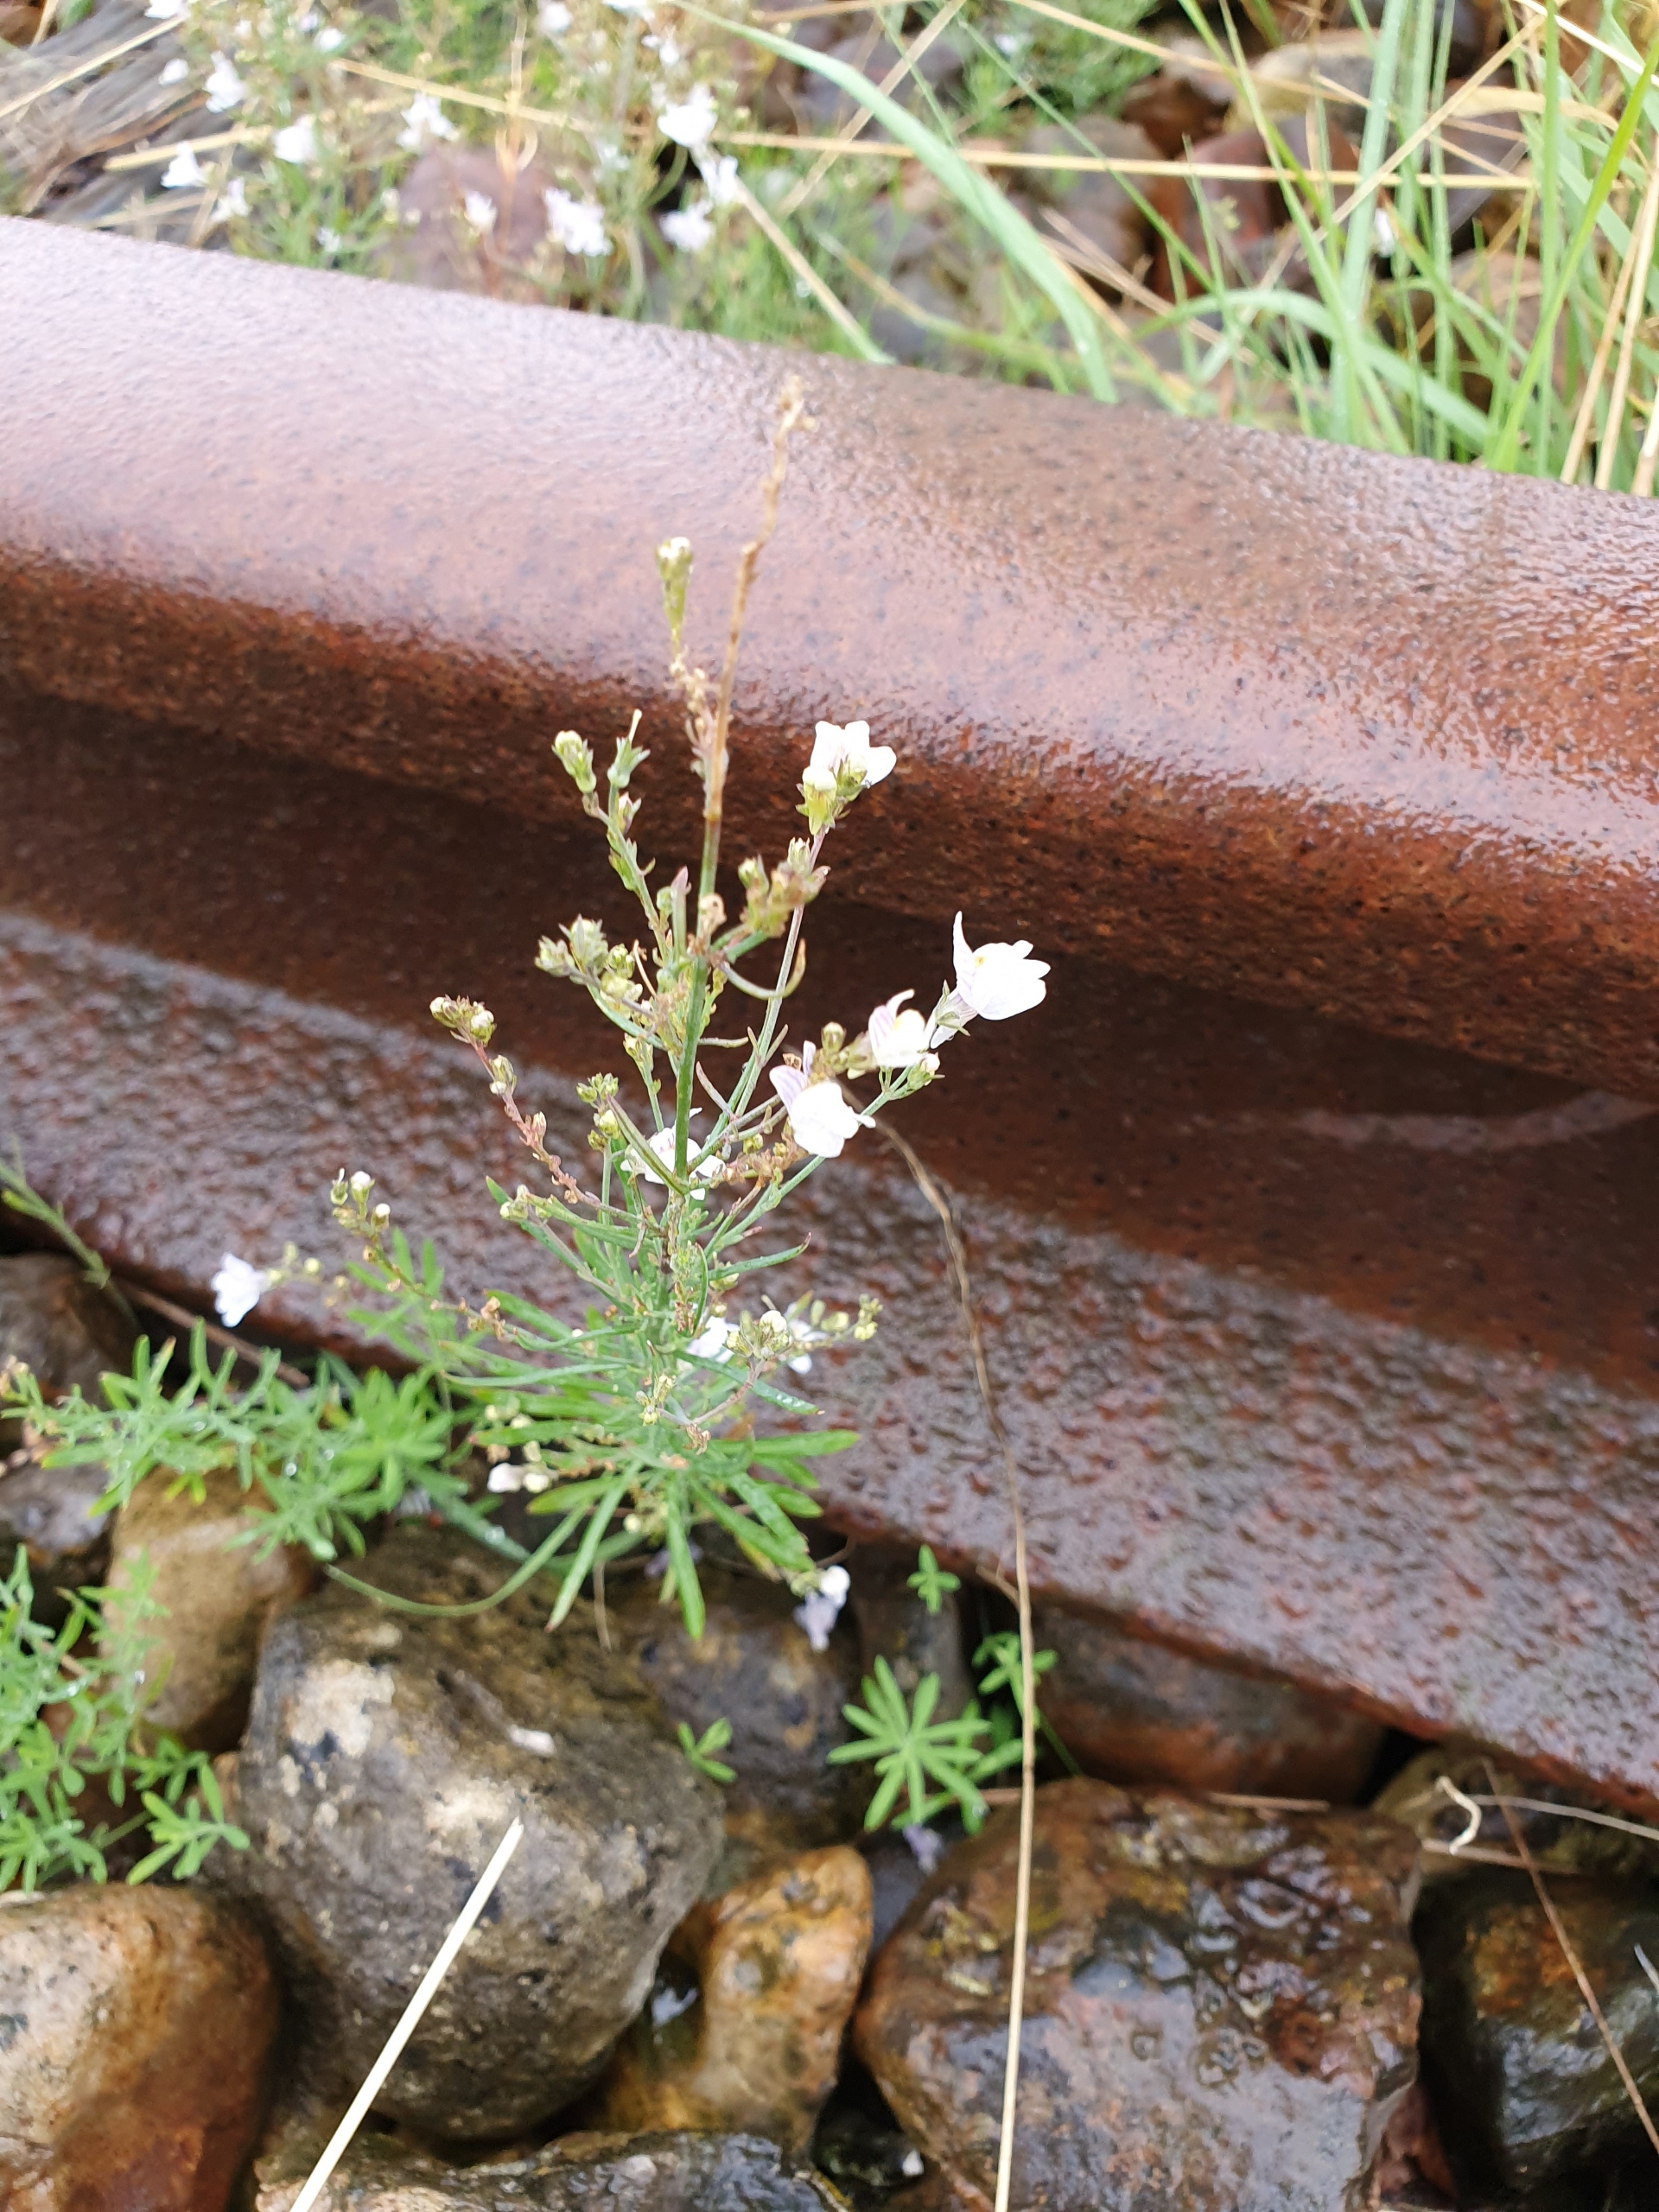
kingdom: Plantae
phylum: Tracheophyta
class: Magnoliopsida
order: Lamiales
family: Plantaginaceae
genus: Linaria
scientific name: Linaria repens
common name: Stribet torskemund
